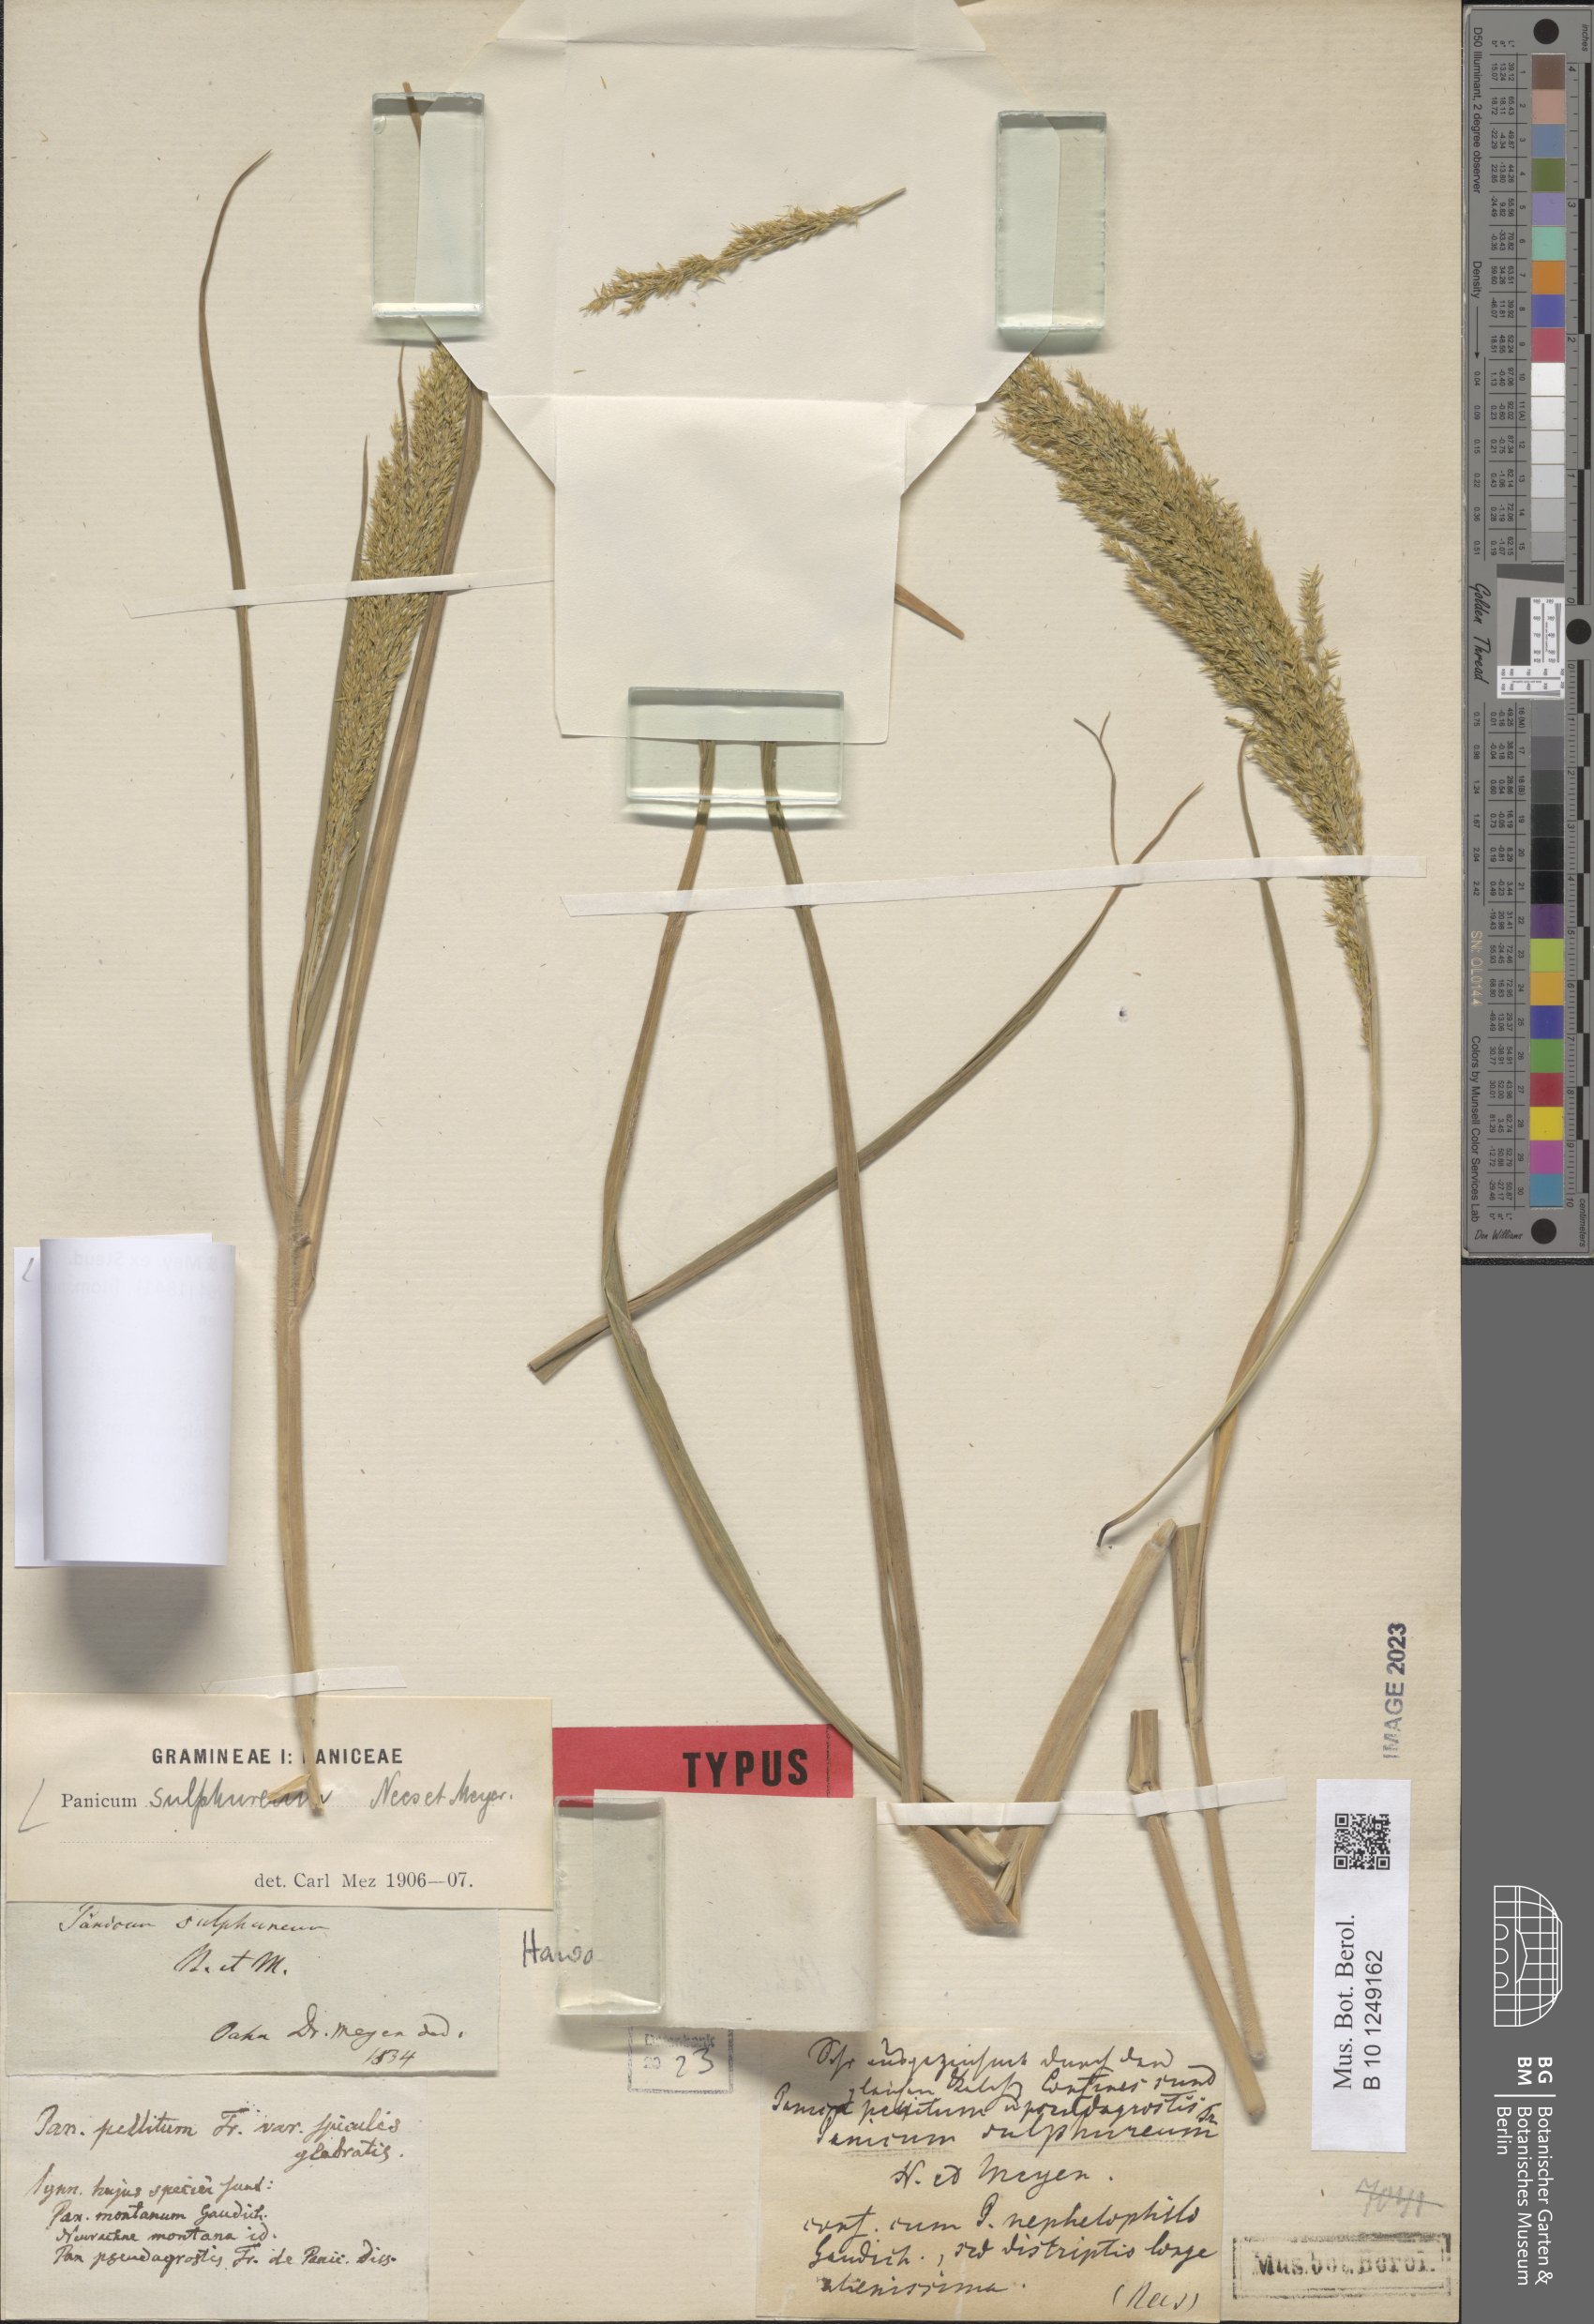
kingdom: Plantae
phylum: Tracheophyta
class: Liliopsida
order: Poales
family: Poaceae
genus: Panicum
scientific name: Panicum sulphureum
